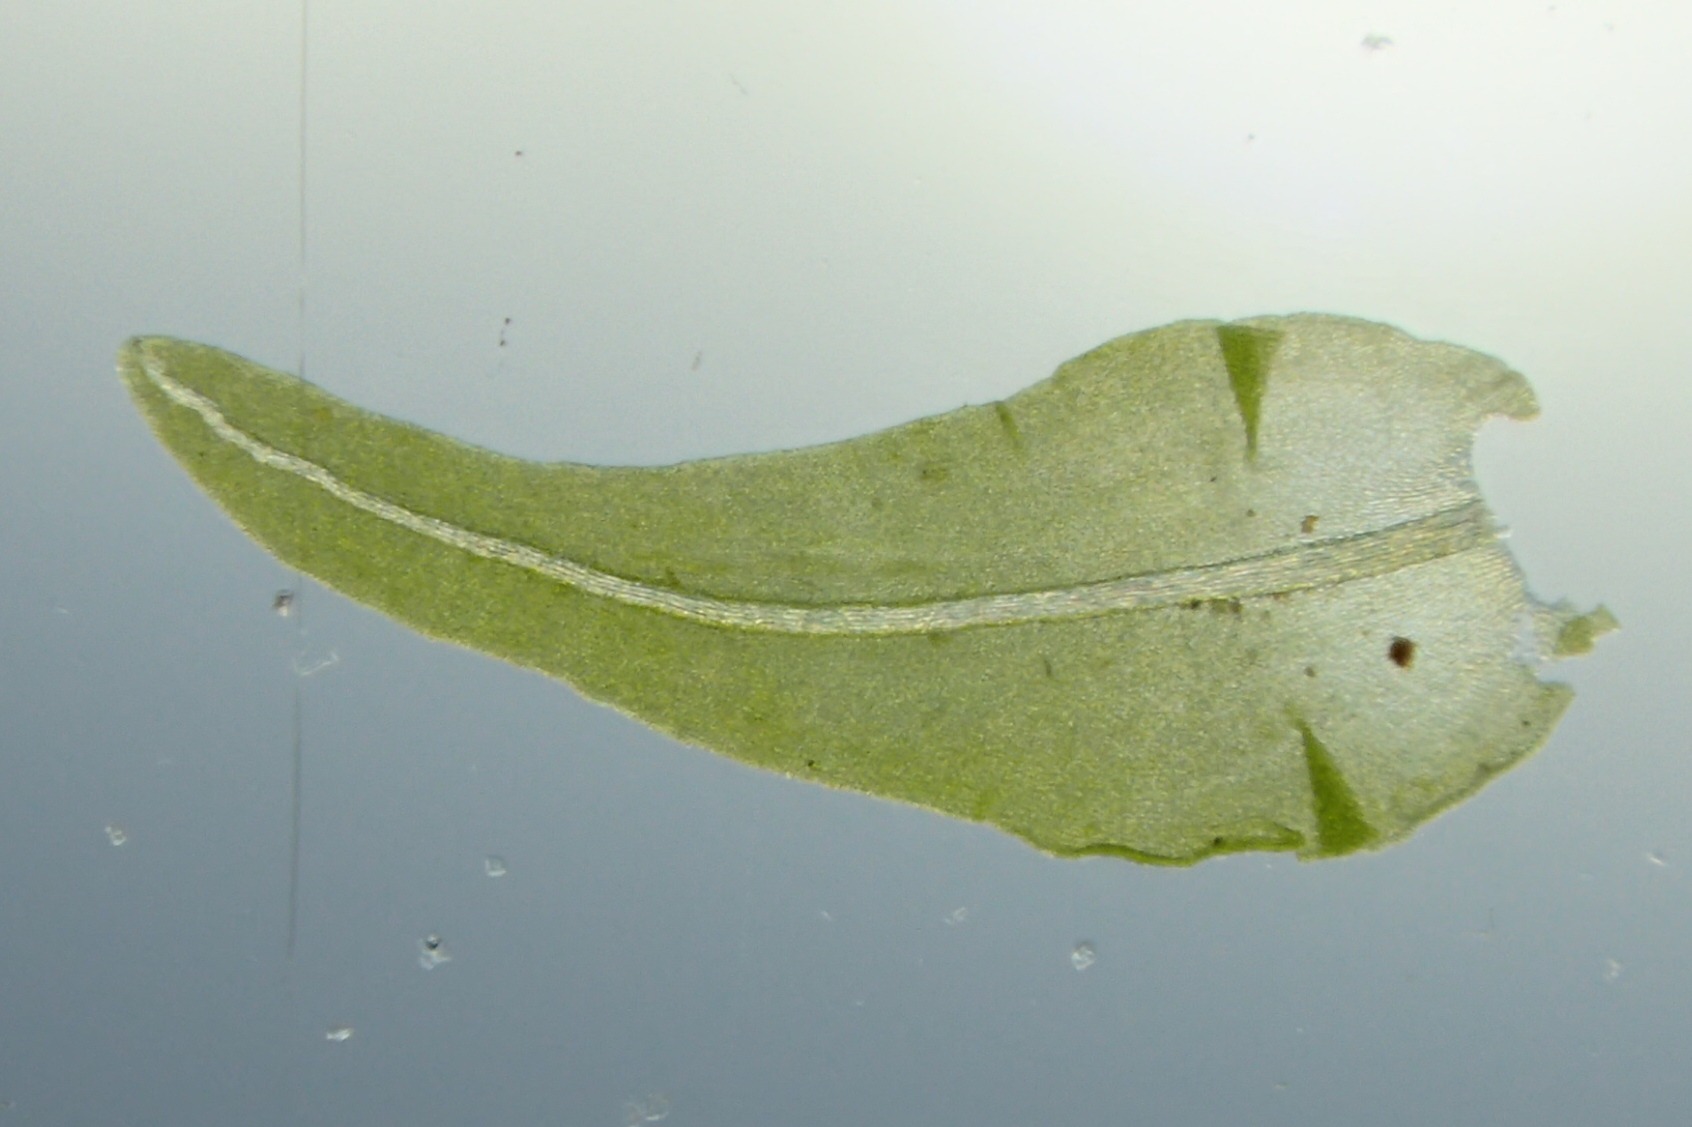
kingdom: Plantae
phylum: Bryophyta
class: Bryopsida
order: Hypnales
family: Anomodontaceae
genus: Anomodon
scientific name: Anomodon viticulosus
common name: Robust matblad
